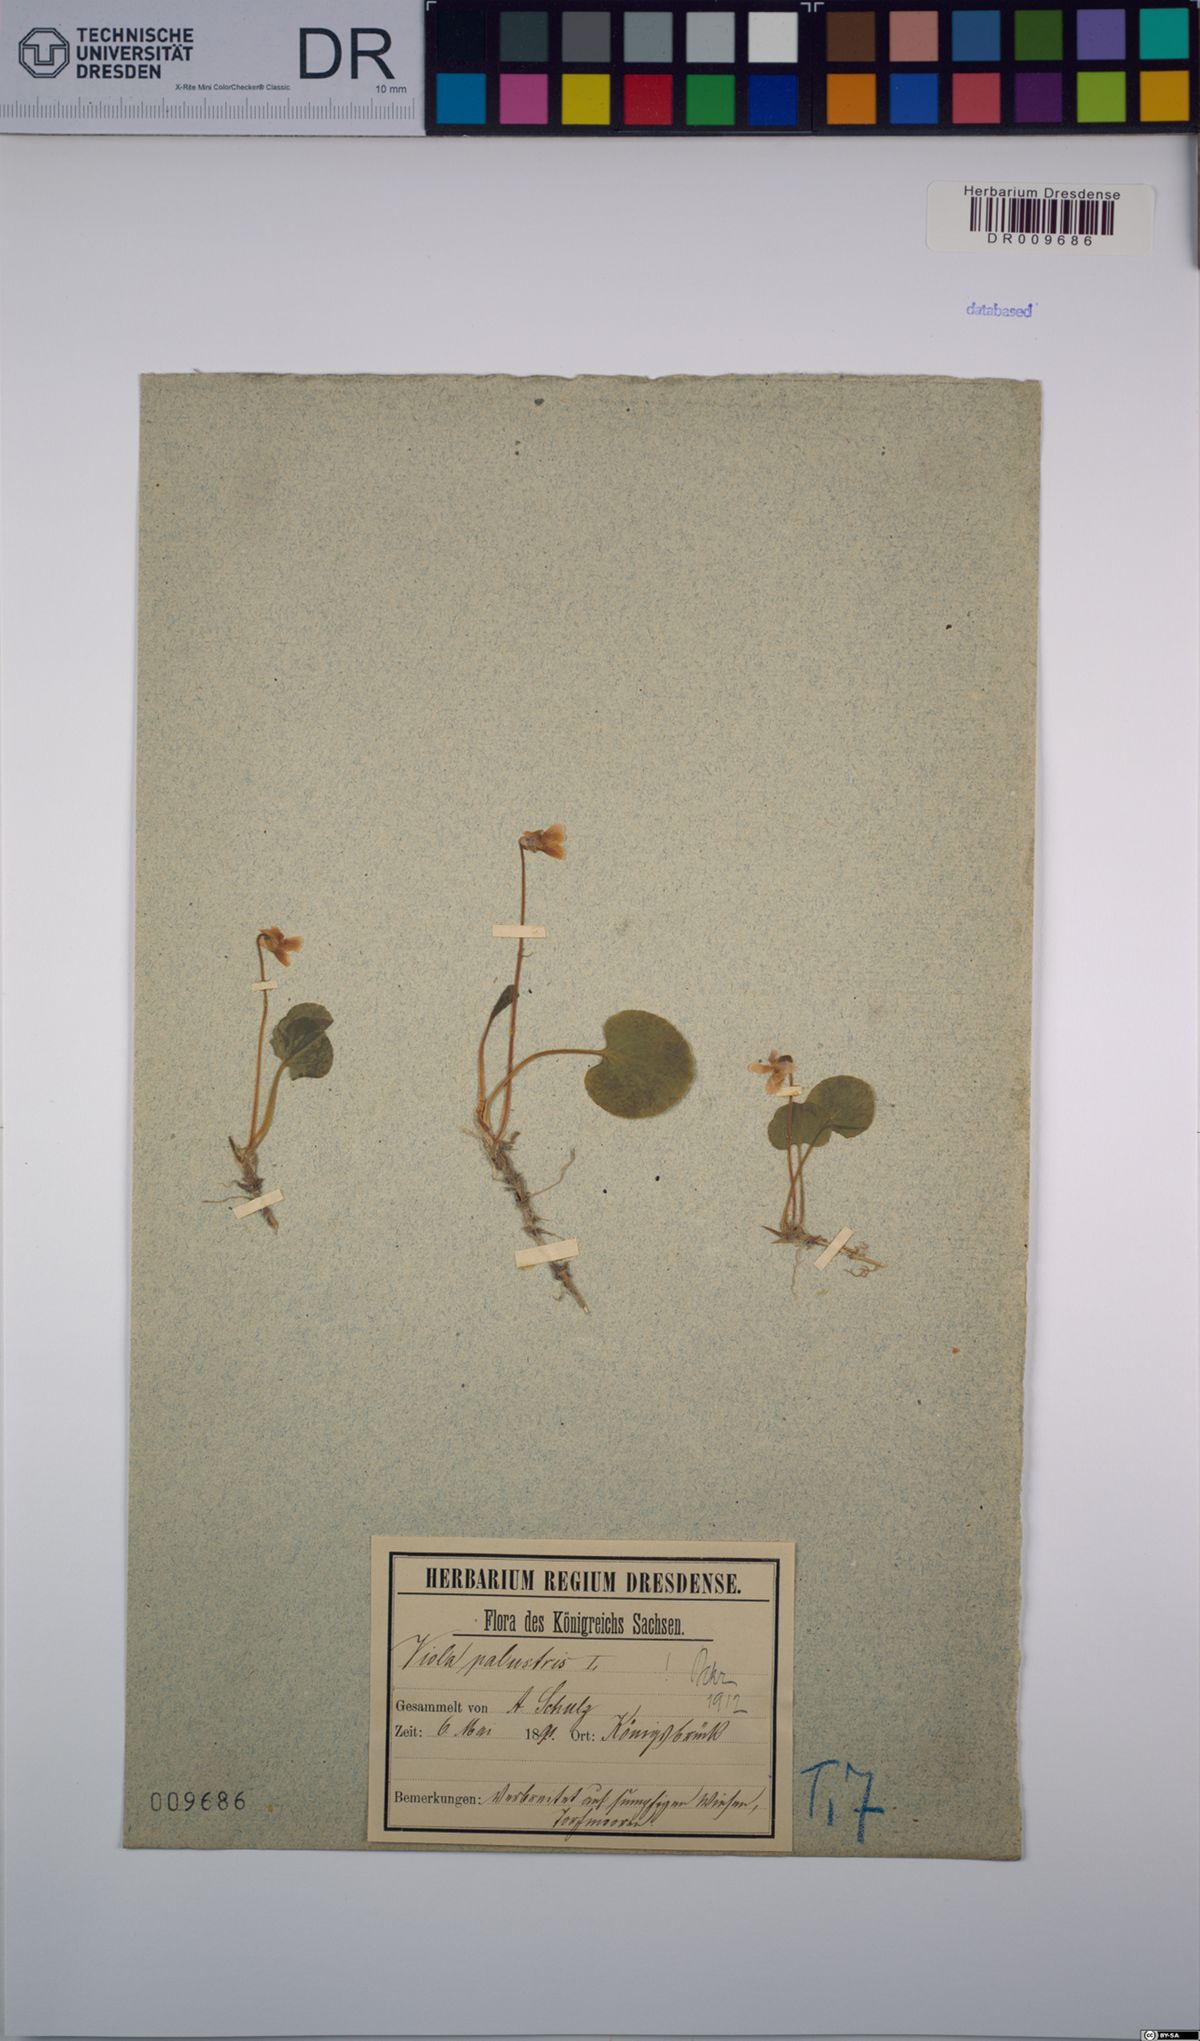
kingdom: Plantae
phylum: Tracheophyta
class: Magnoliopsida
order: Malpighiales
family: Violaceae
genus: Viola
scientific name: Viola palustris
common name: Marsh violet
